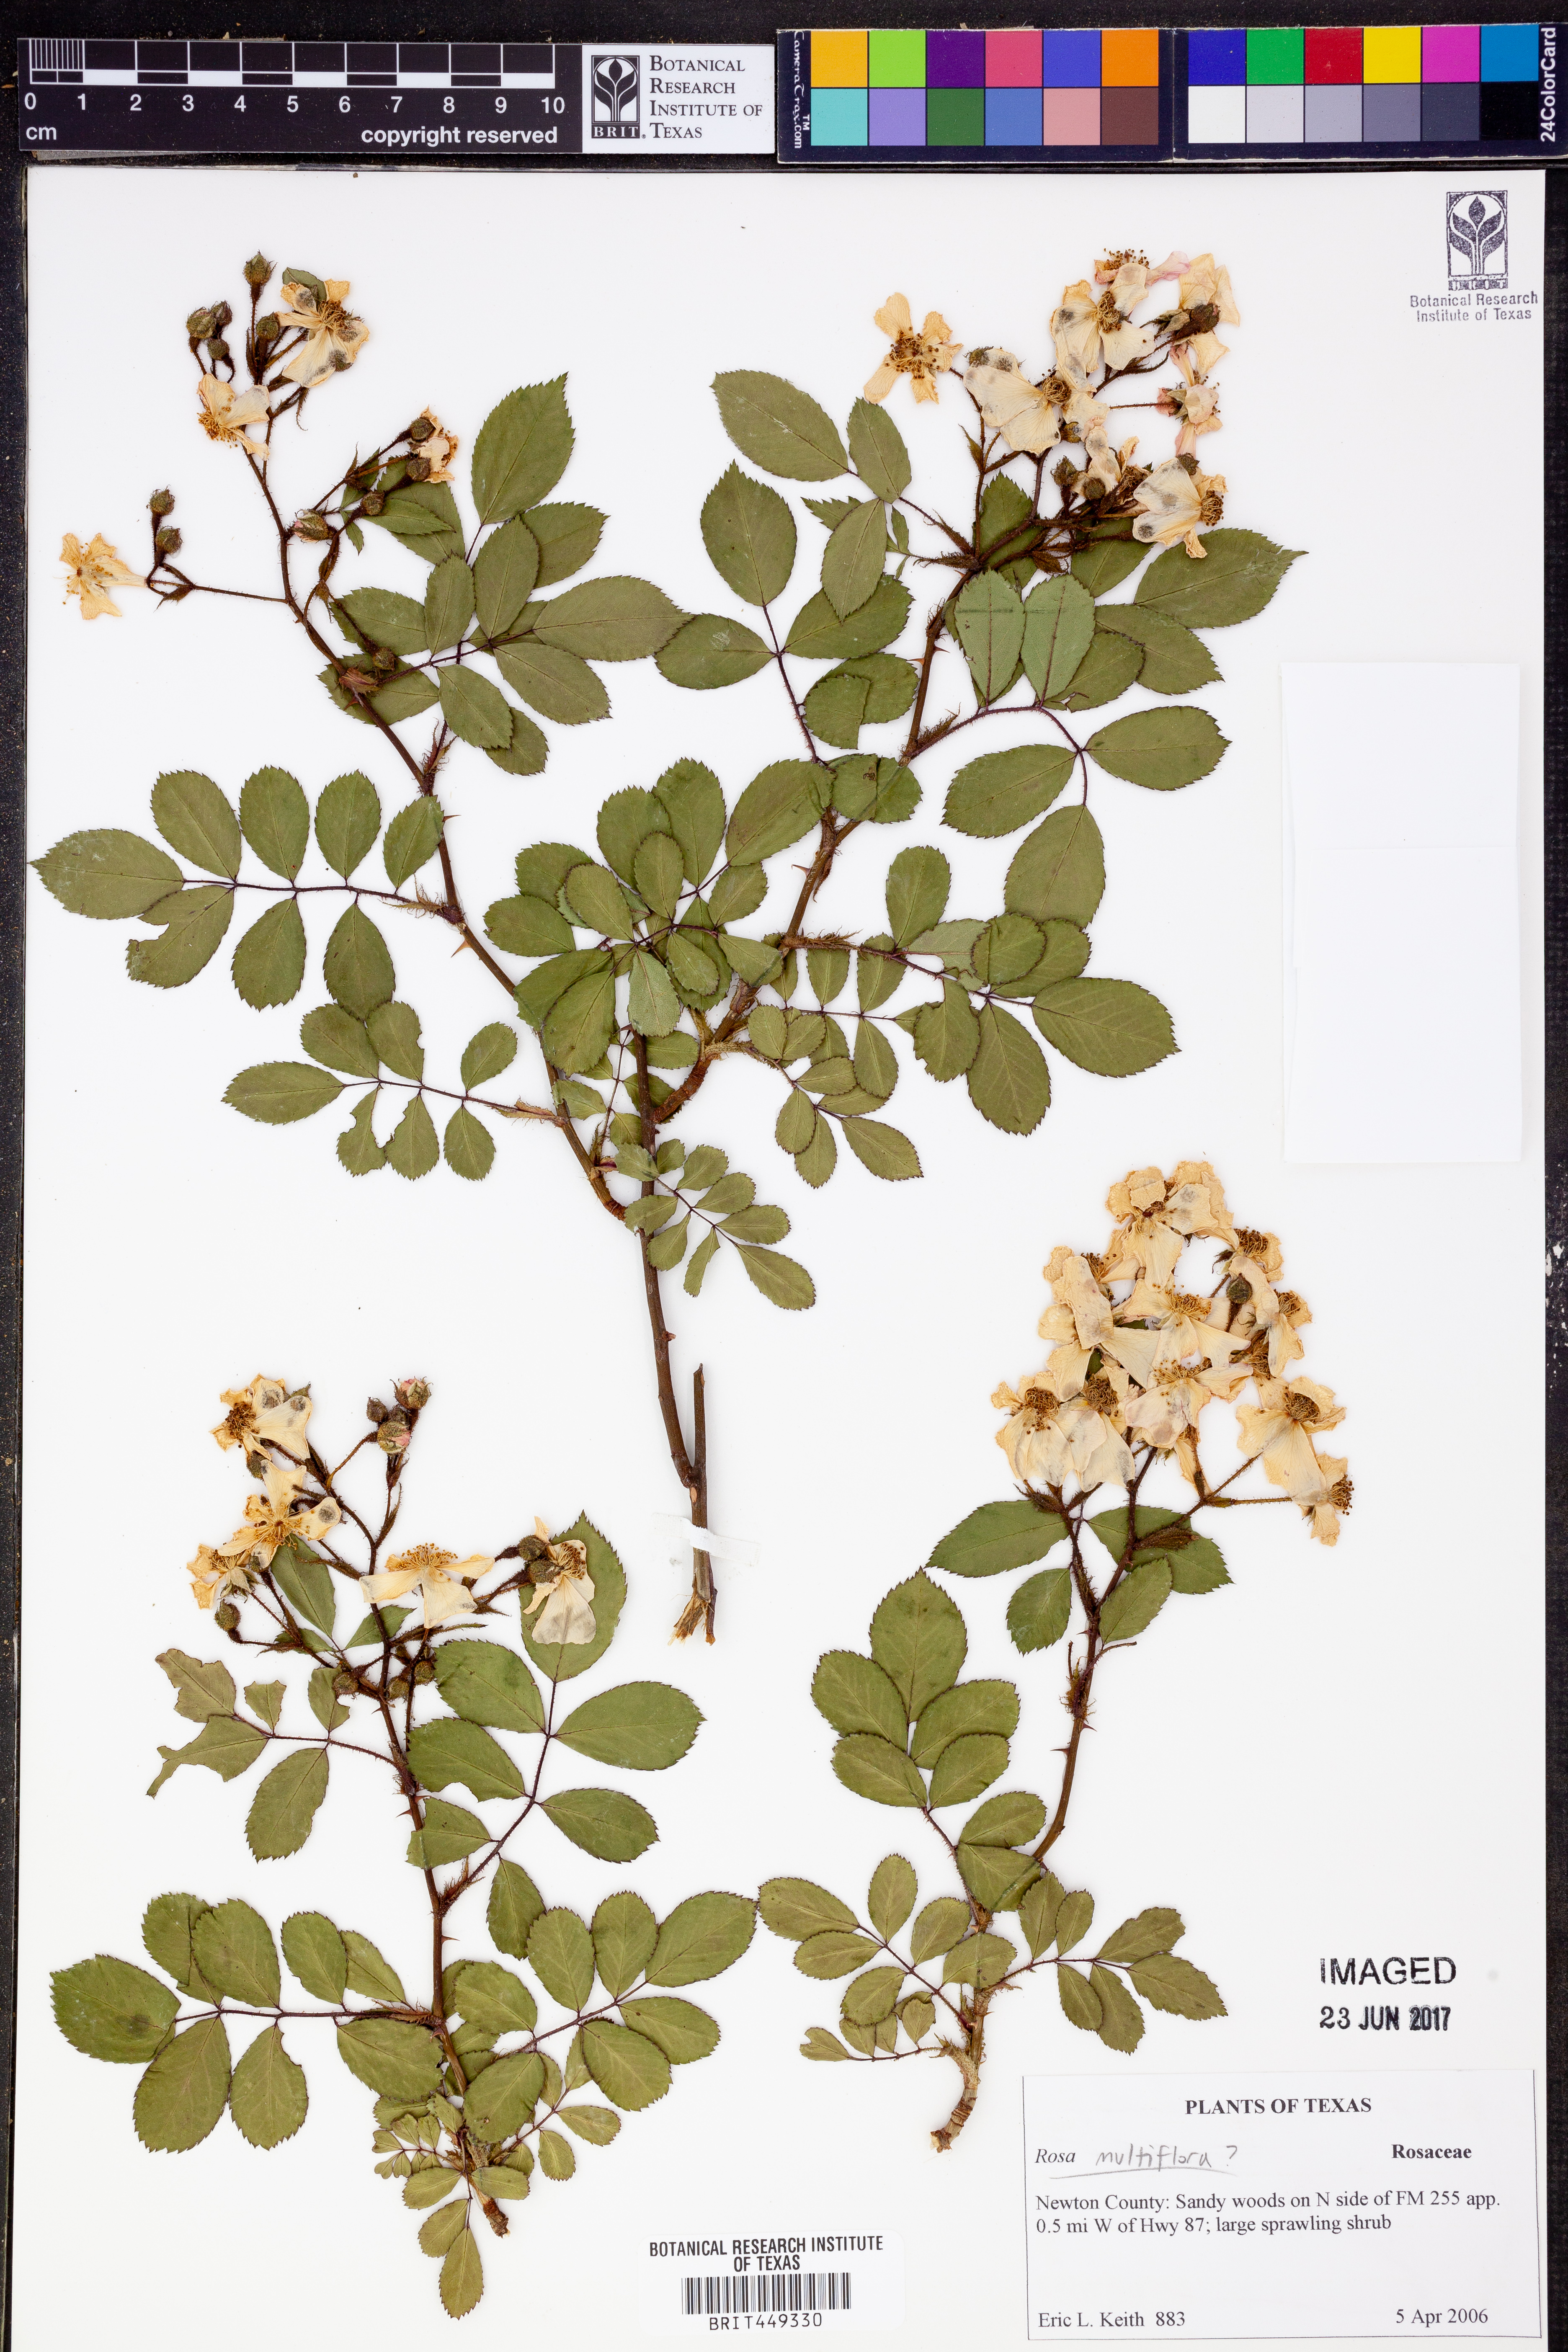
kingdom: Plantae
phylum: Tracheophyta
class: Magnoliopsida
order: Rosales
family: Rosaceae
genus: Rosa
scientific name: Rosa multiflora
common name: Multiflora rose
